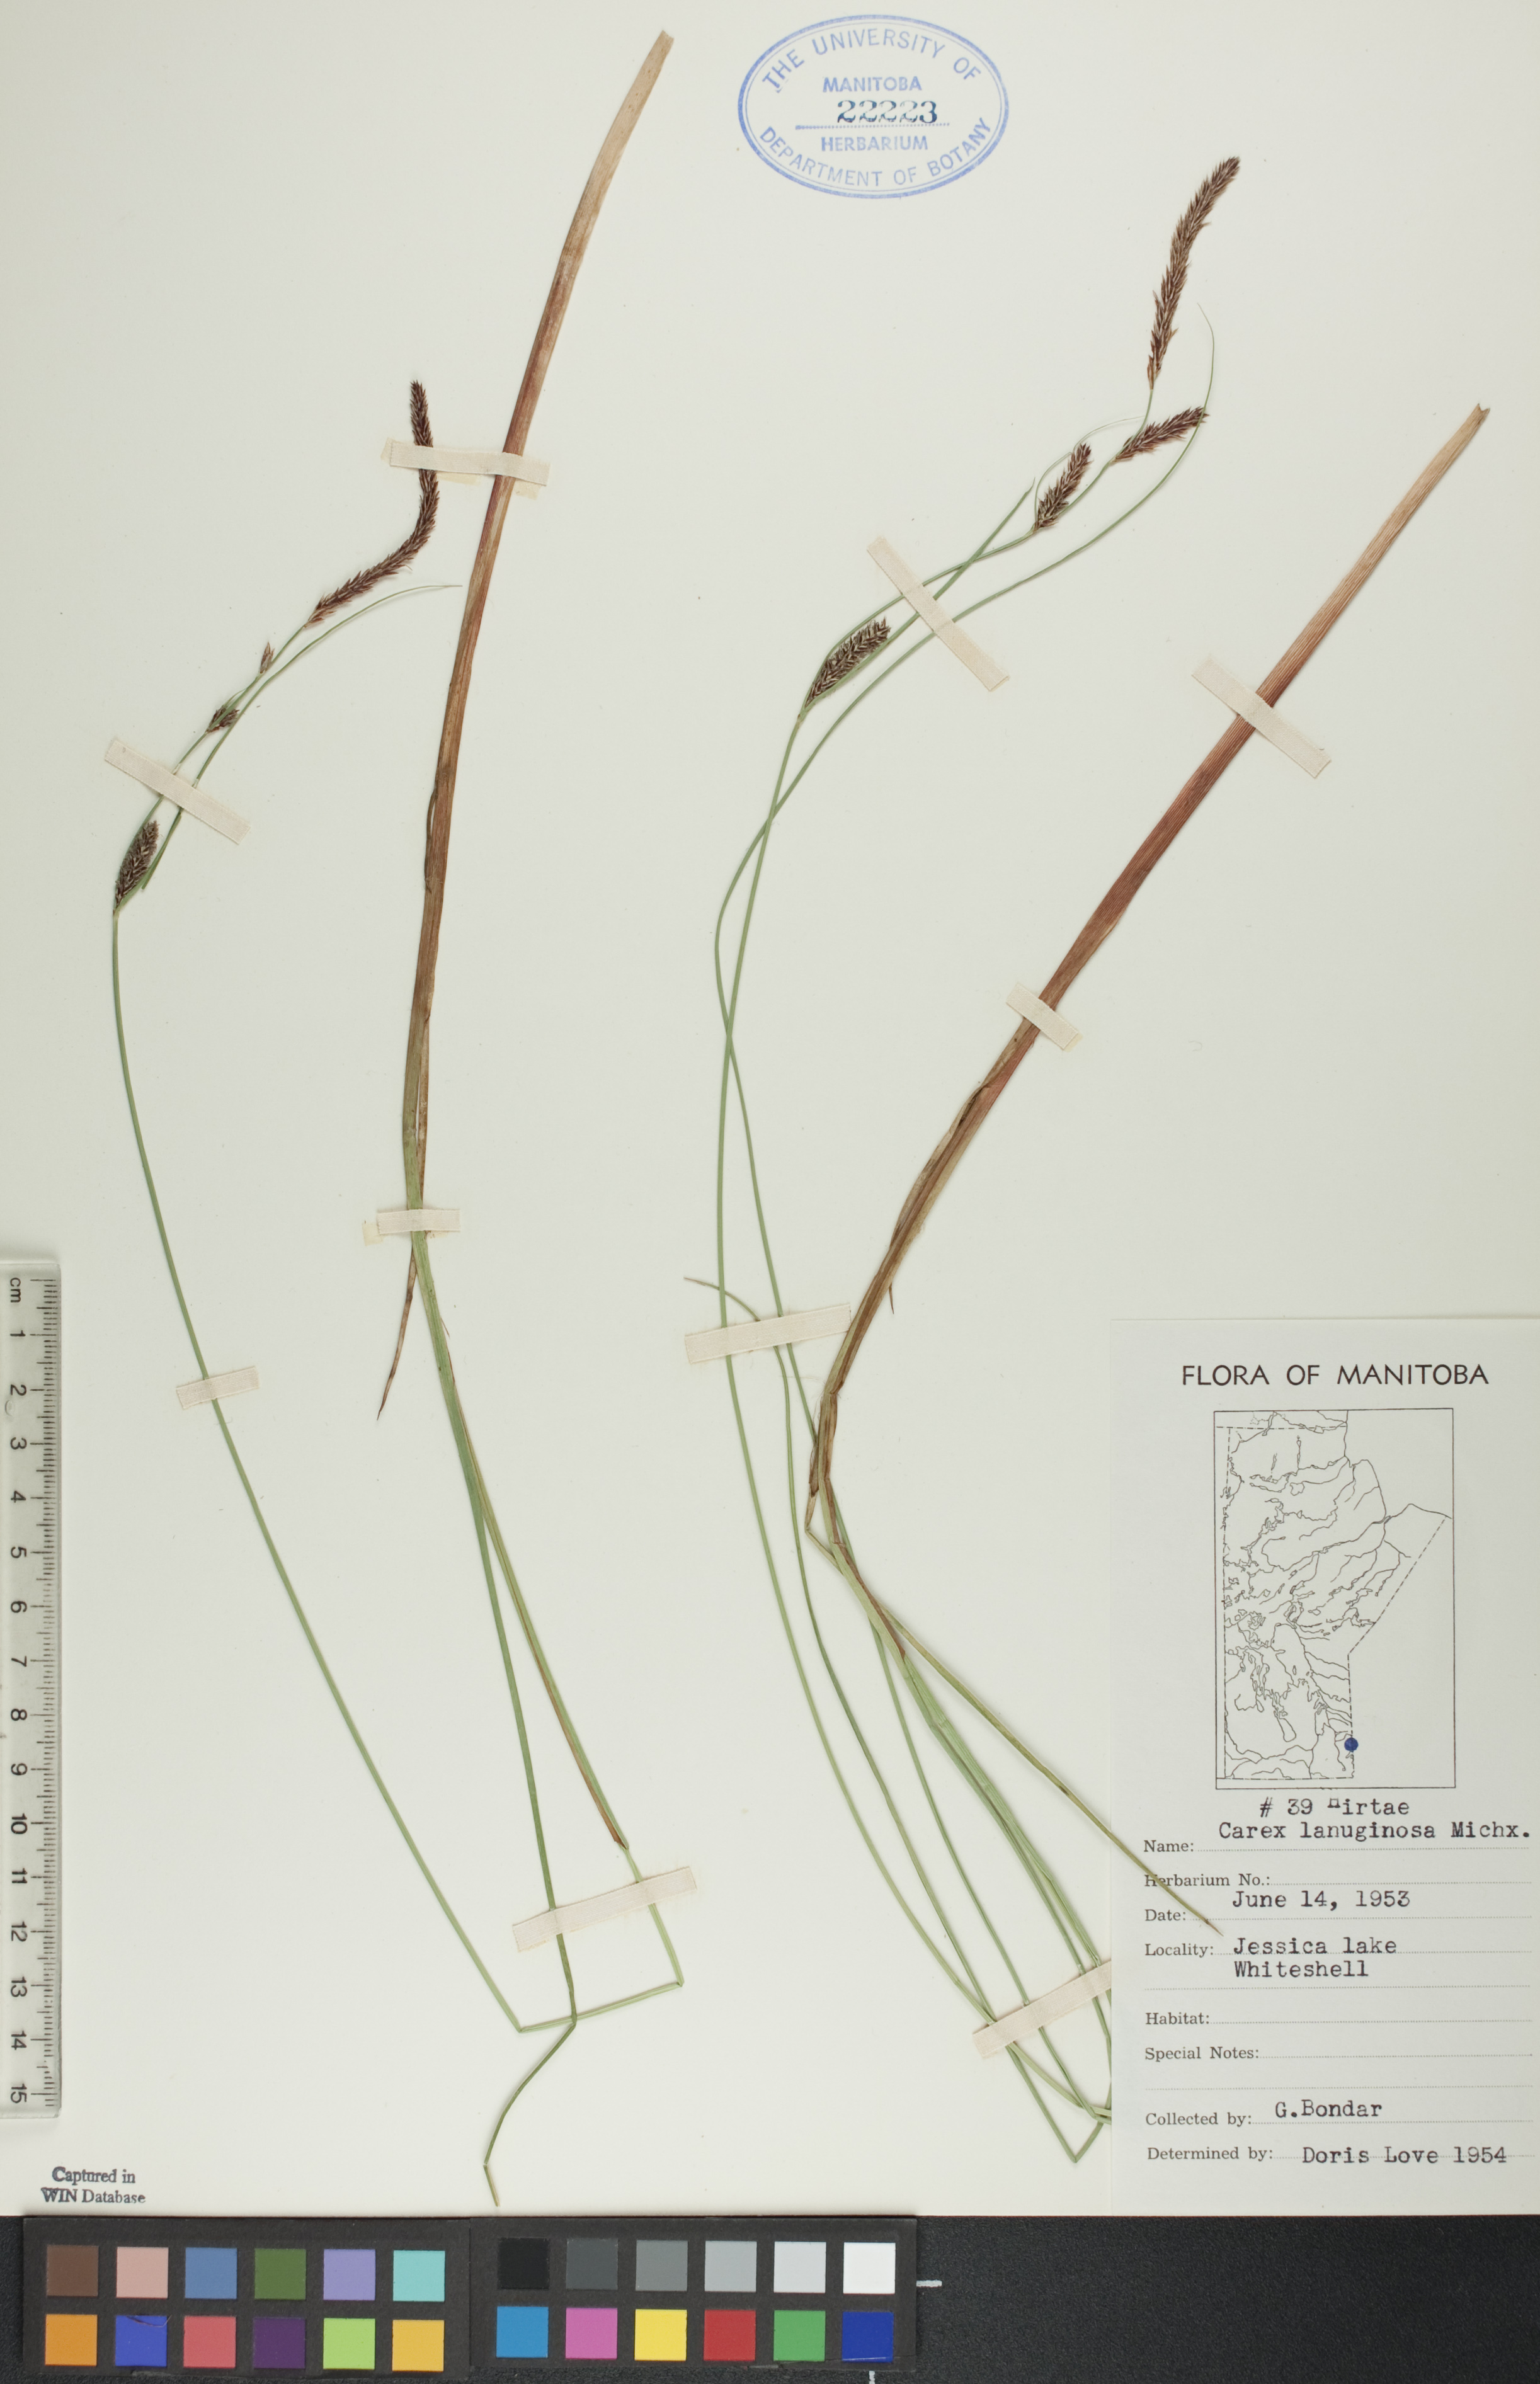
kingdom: Plantae
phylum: Tracheophyta
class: Liliopsida
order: Poales
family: Cyperaceae
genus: Carex
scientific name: Carex lasiocarpa
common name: Slender sedge
